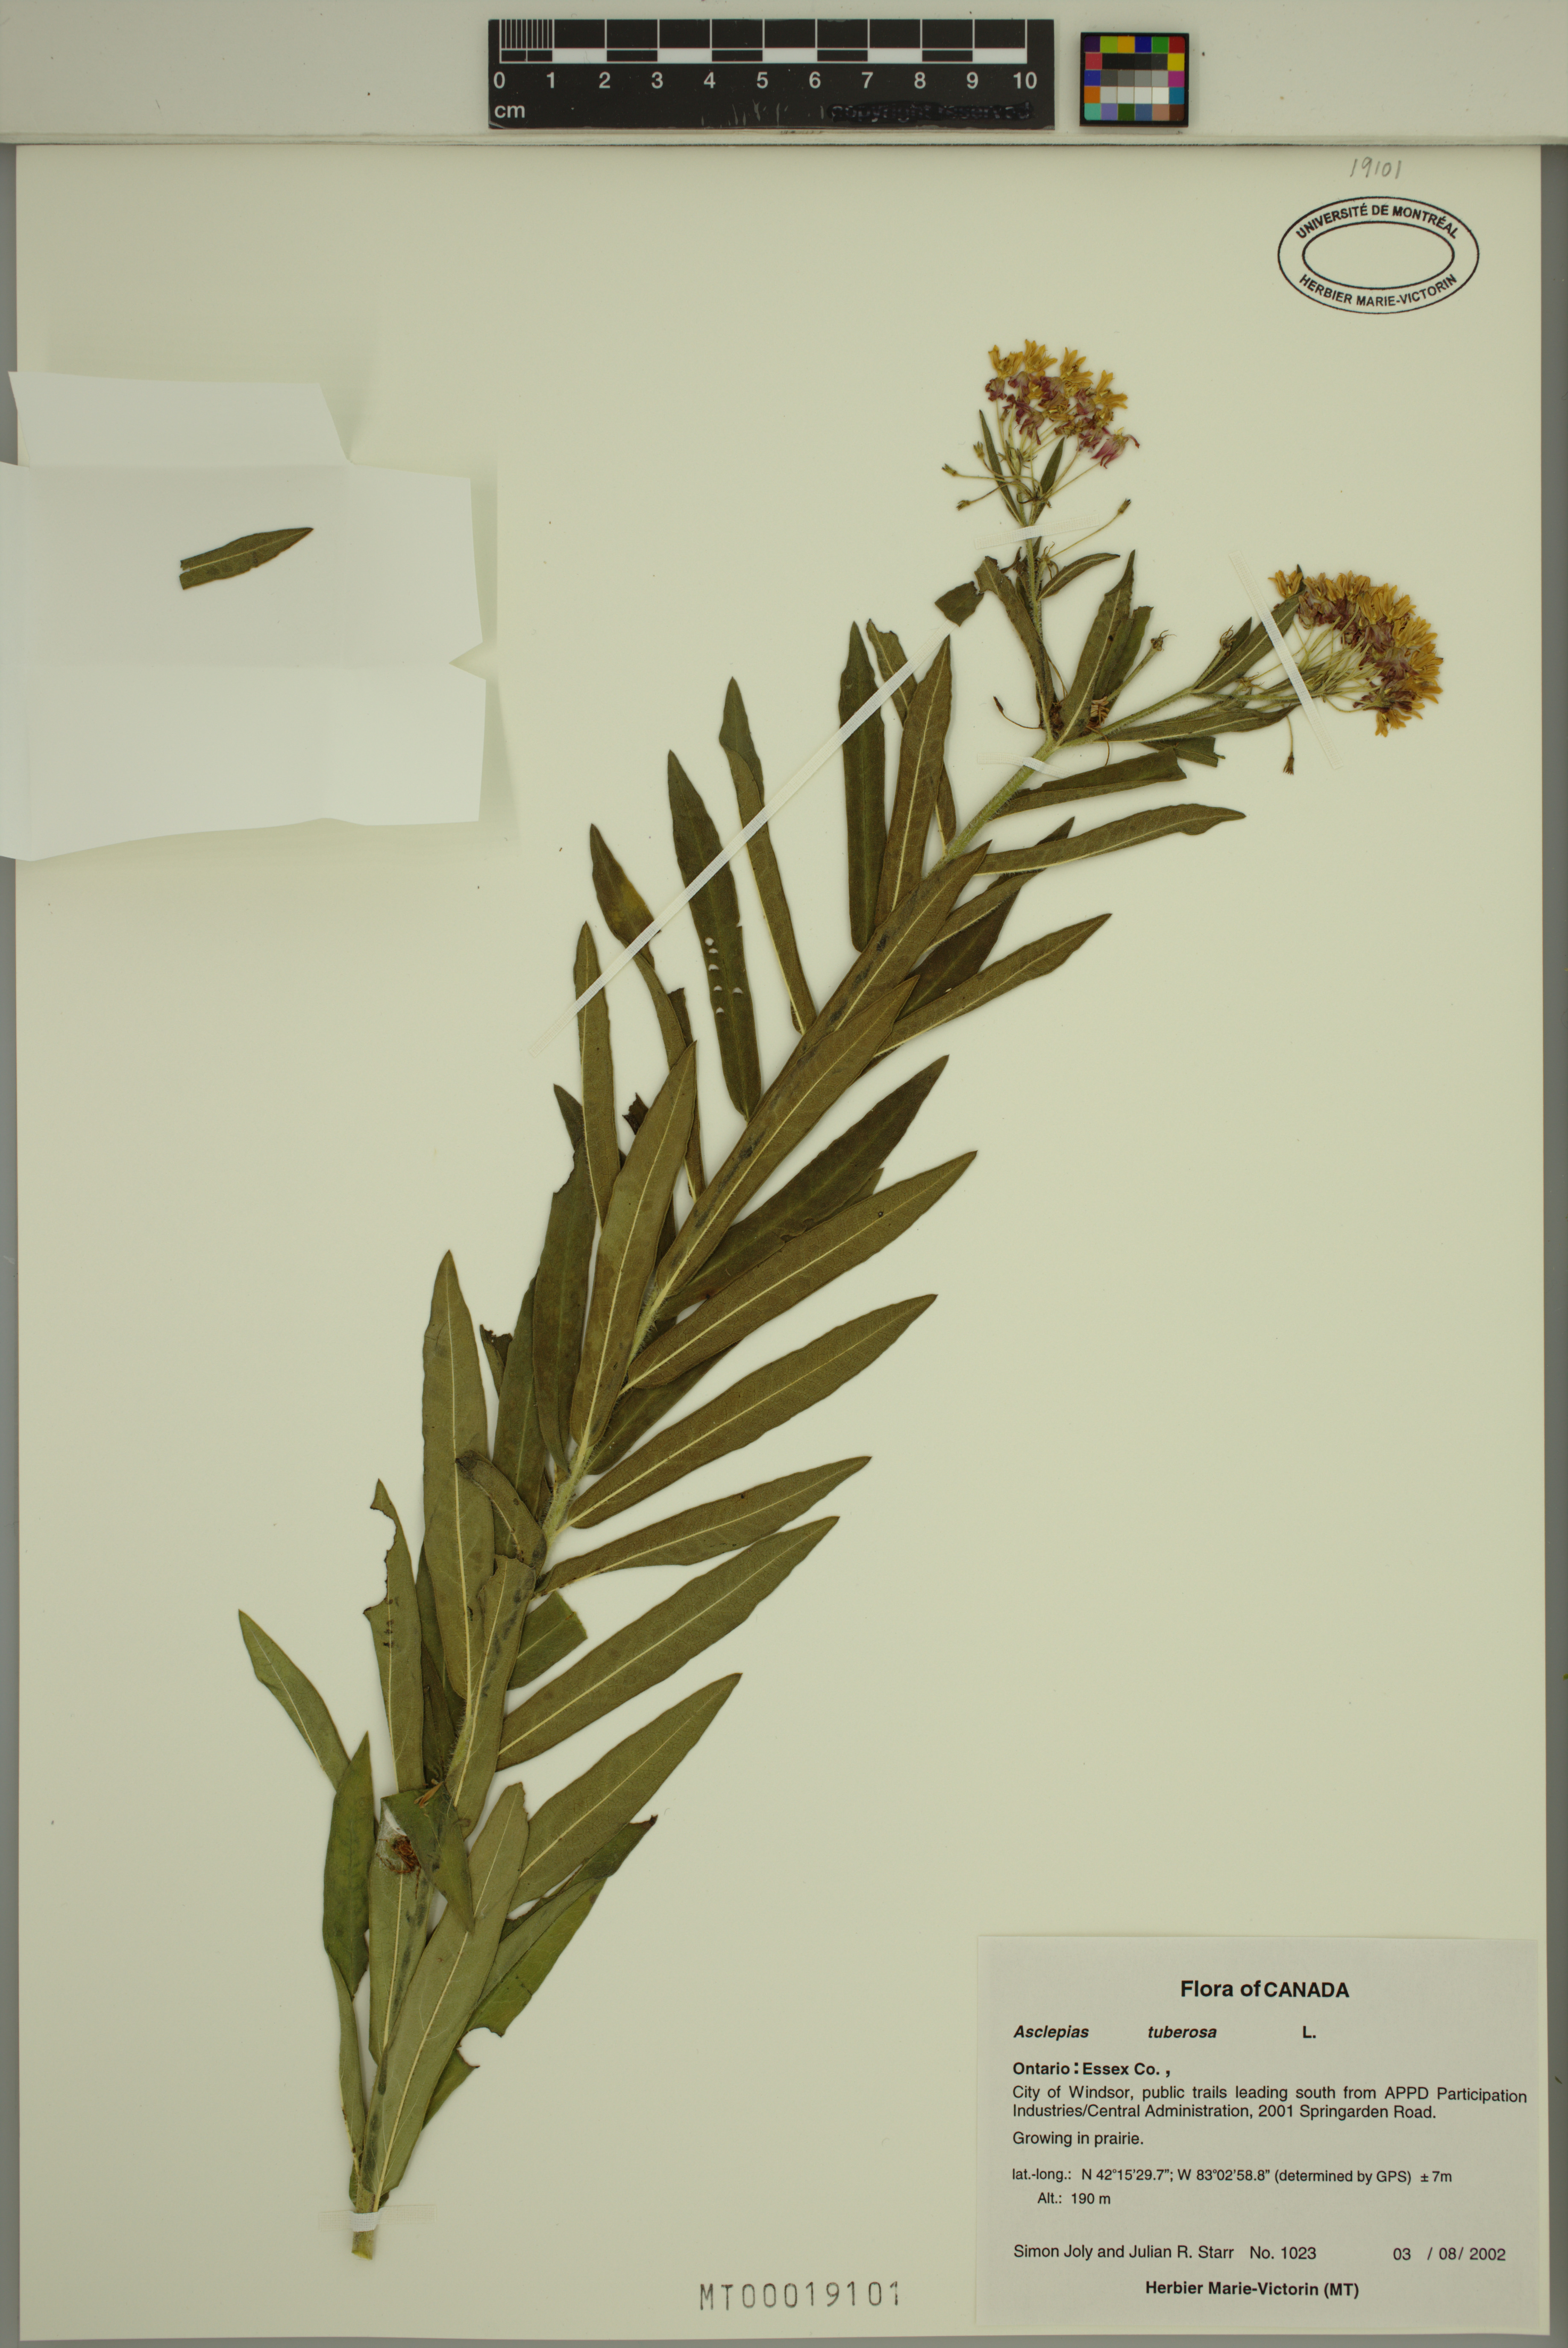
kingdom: Plantae
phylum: Tracheophyta
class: Magnoliopsida
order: Gentianales
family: Apocynaceae
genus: Asclepias
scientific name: Asclepias tuberosa
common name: Butterfly milkweed
